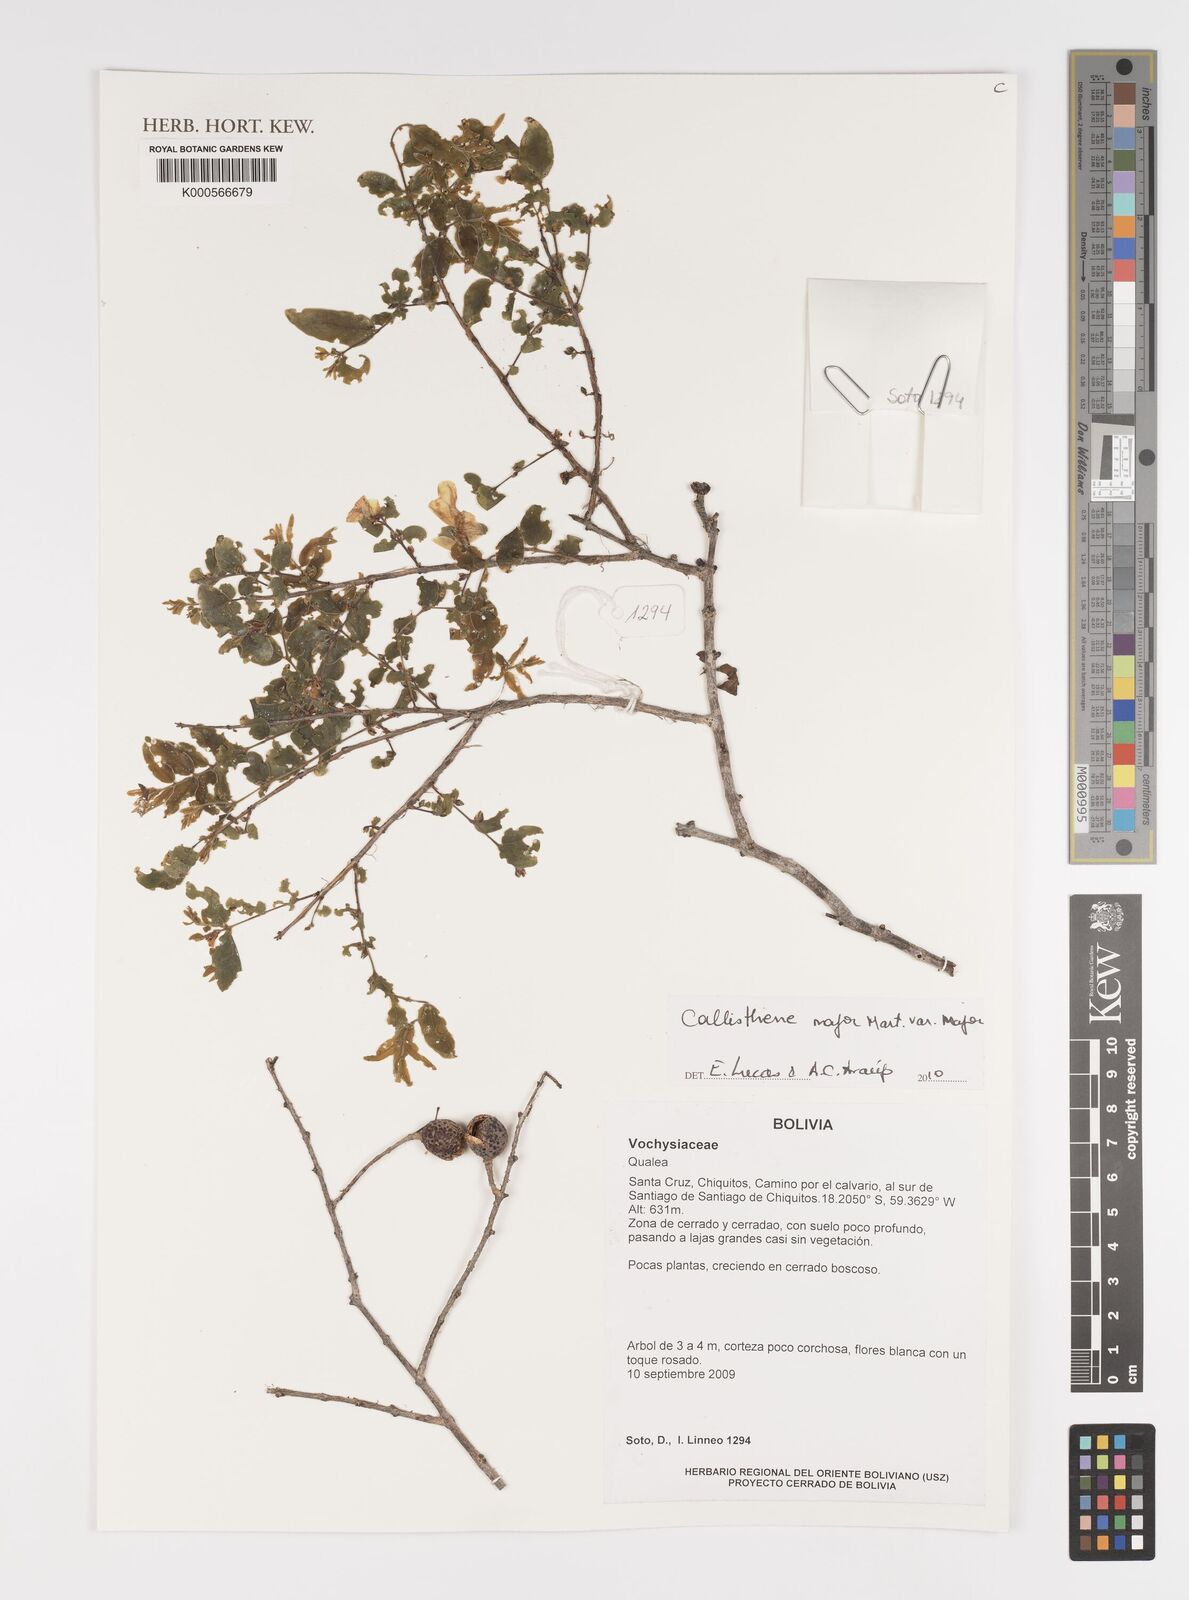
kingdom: Plantae
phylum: Tracheophyta
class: Magnoliopsida
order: Myrtales
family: Vochysiaceae
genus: Callisthene
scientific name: Callisthene major
